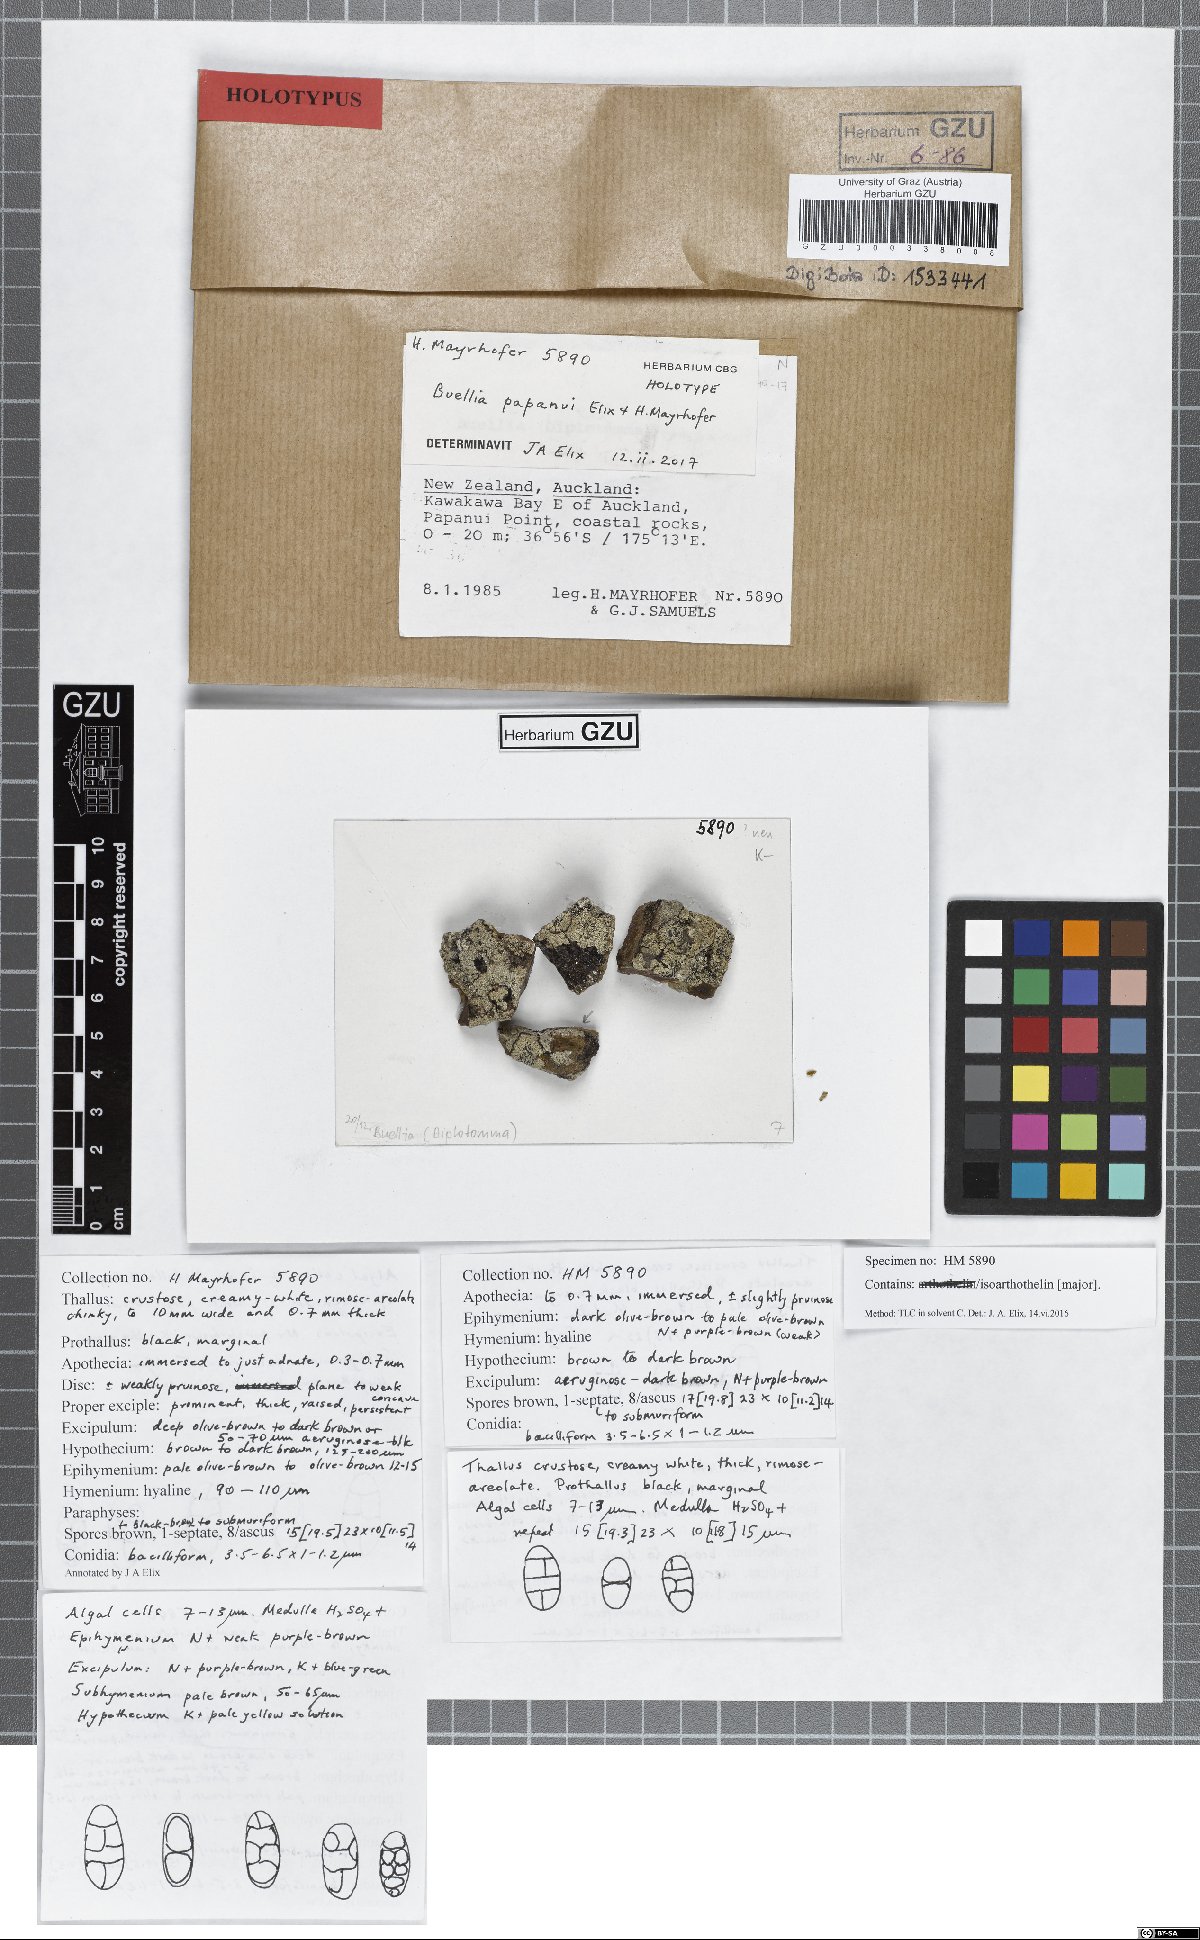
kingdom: Fungi
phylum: Ascomycota
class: Lecanoromycetes
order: Caliciales
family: Caliciaceae
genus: Buellia
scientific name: Buellia papanui
